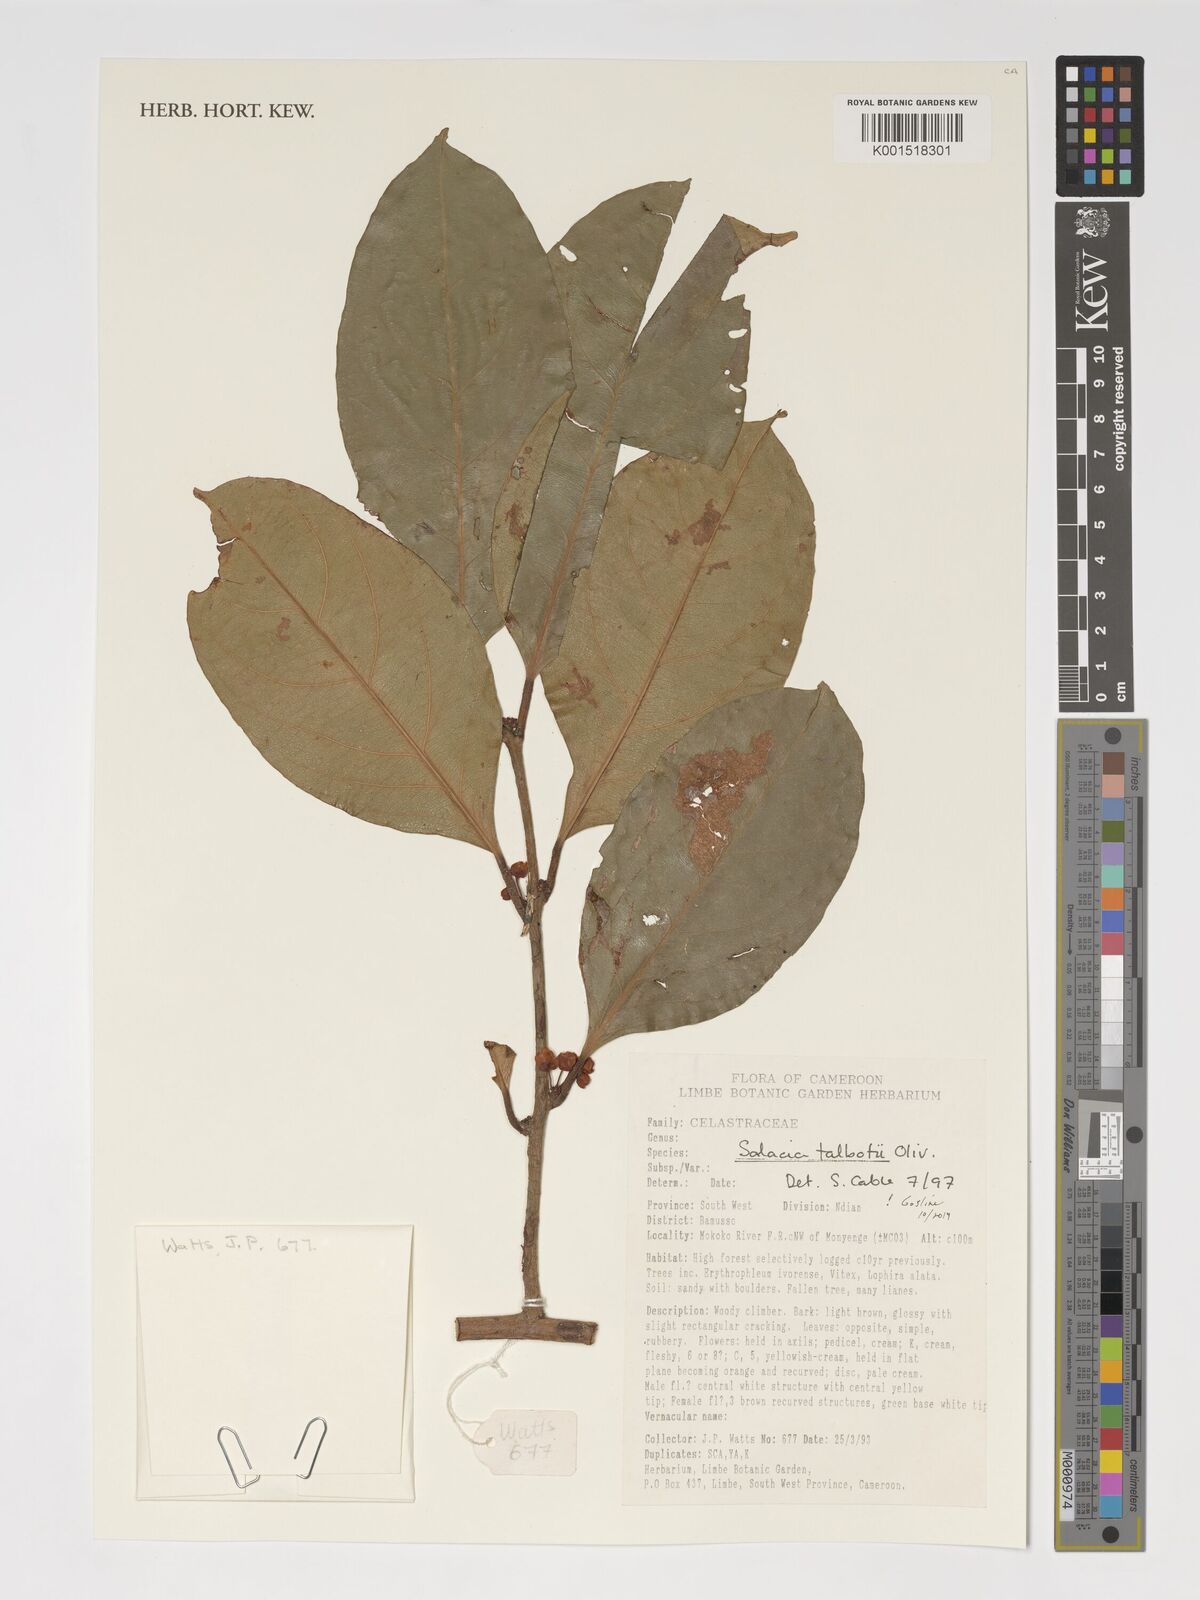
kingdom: Plantae
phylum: Tracheophyta
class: Magnoliopsida
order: Celastrales
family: Celastraceae
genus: Salacia
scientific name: Salacia talbotii
